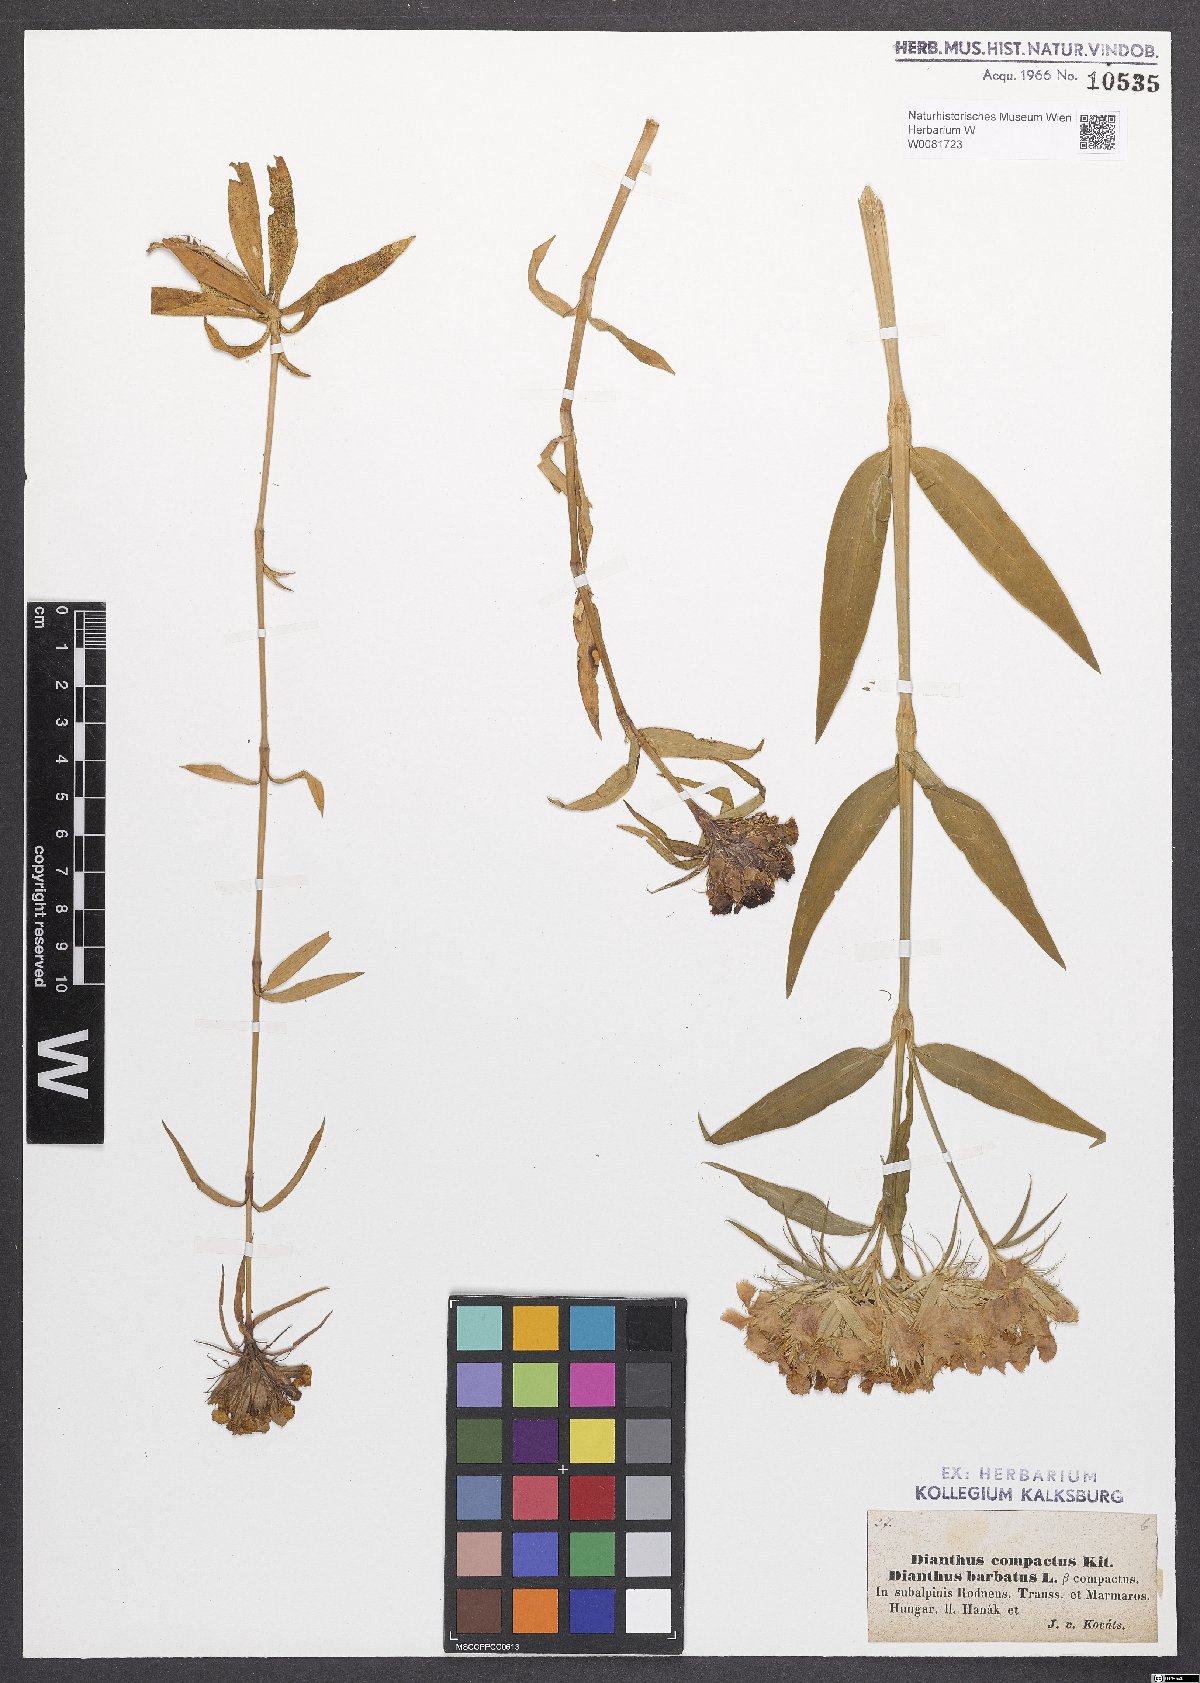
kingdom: Plantae
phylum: Tracheophyta
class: Magnoliopsida
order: Caryophyllales
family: Caryophyllaceae
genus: Dianthus
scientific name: Dianthus barbatus
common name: Sweet-william
